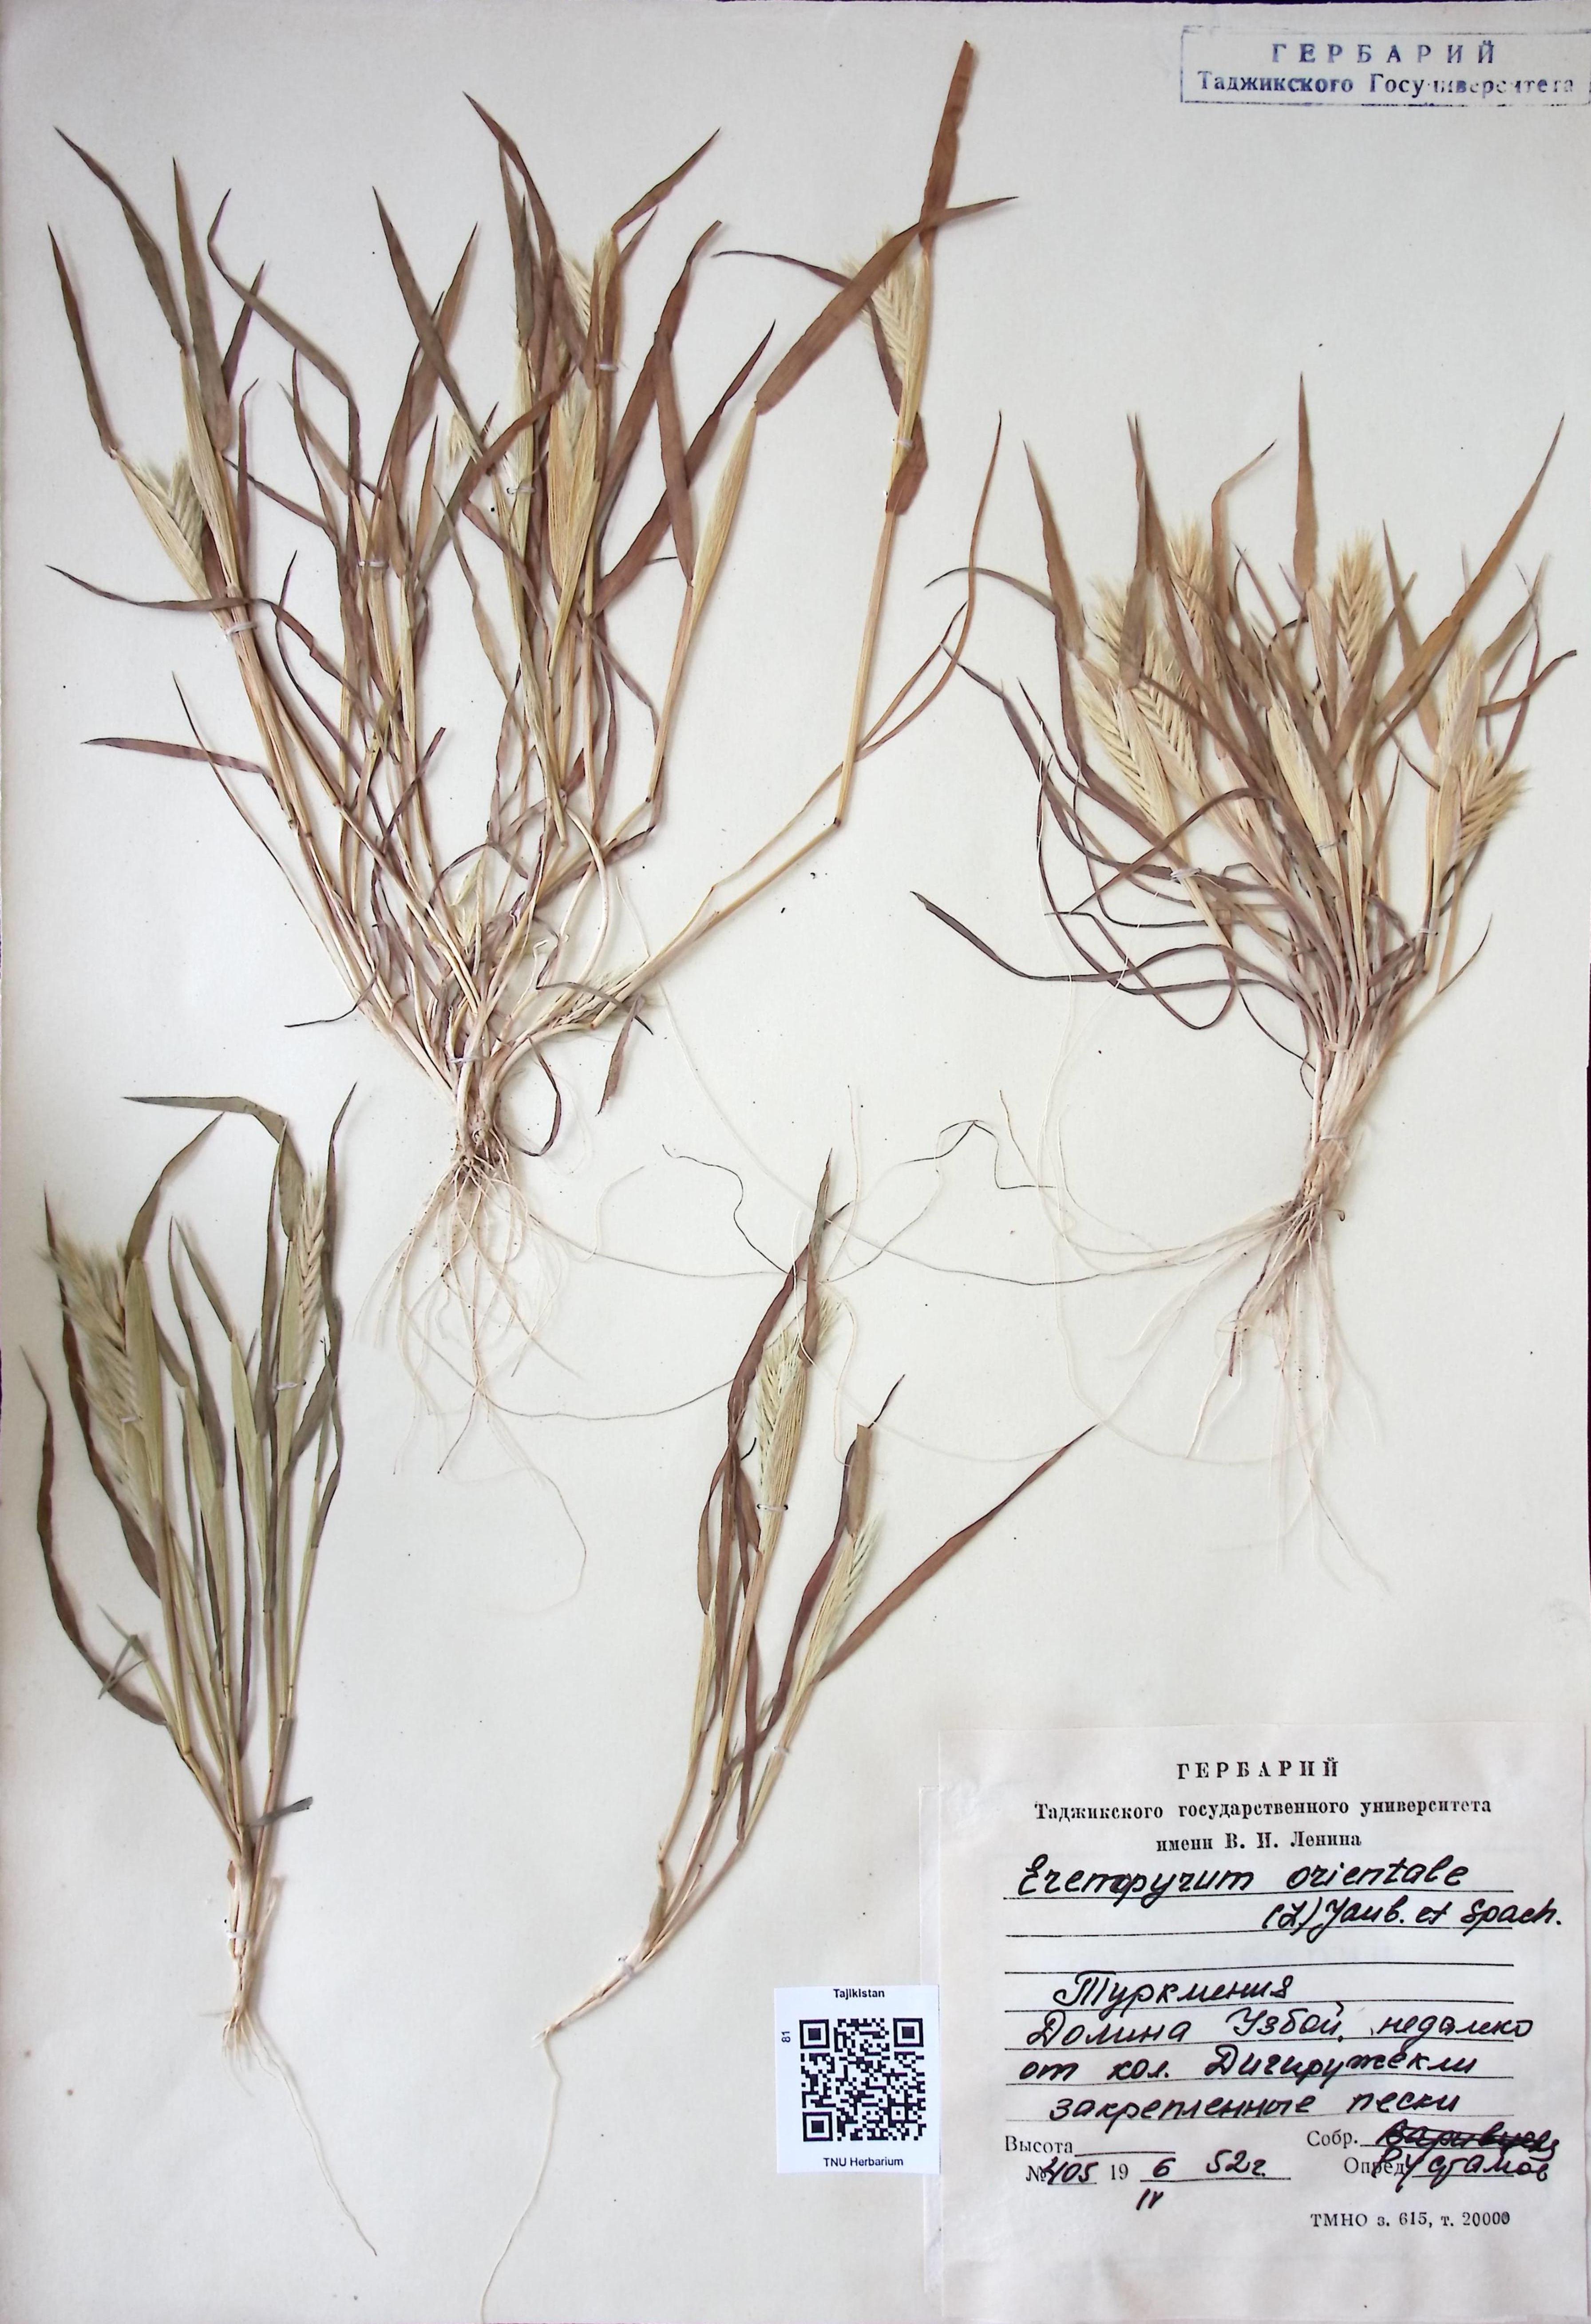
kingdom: Plantae
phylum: Tracheophyta
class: Liliopsida
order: Poales
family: Poaceae
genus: Eremopyrum
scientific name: Eremopyrum orientale
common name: Oriental false wheatgrass
